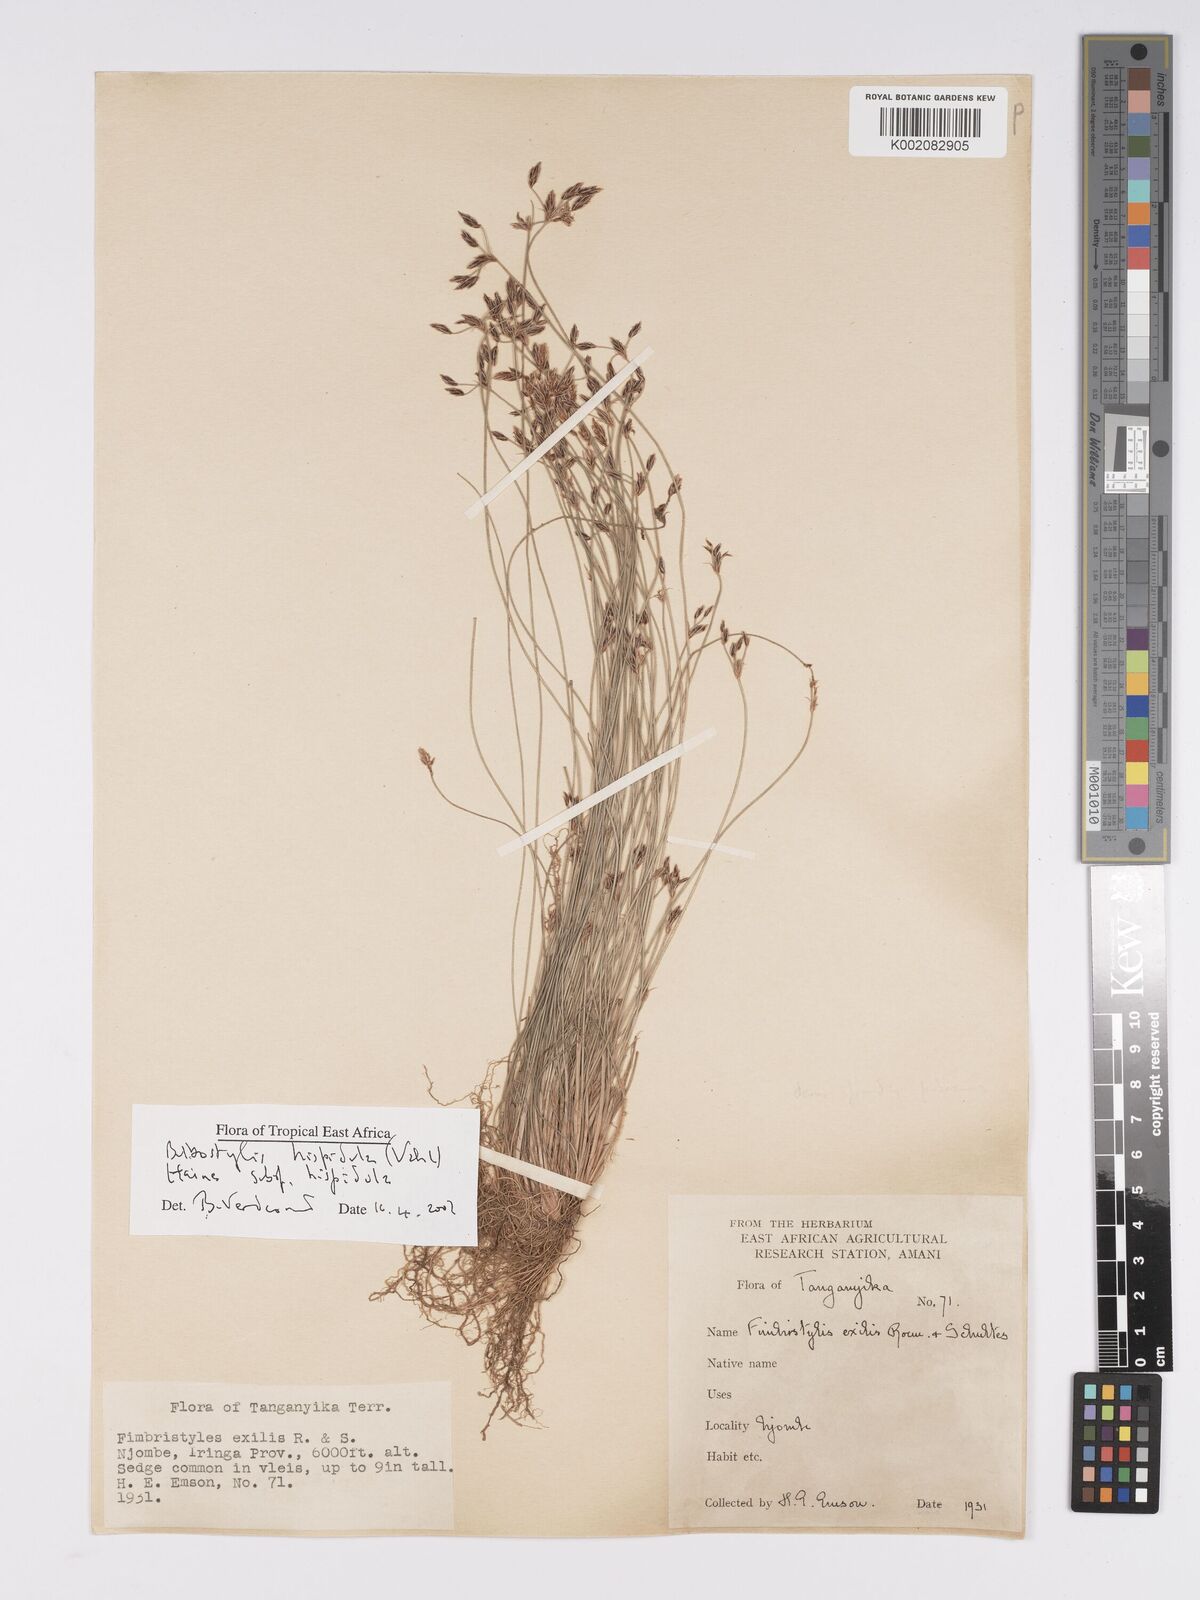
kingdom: Plantae
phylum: Tracheophyta
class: Liliopsida
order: Poales
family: Cyperaceae
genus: Bulbostylis
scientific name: Bulbostylis hispidula
